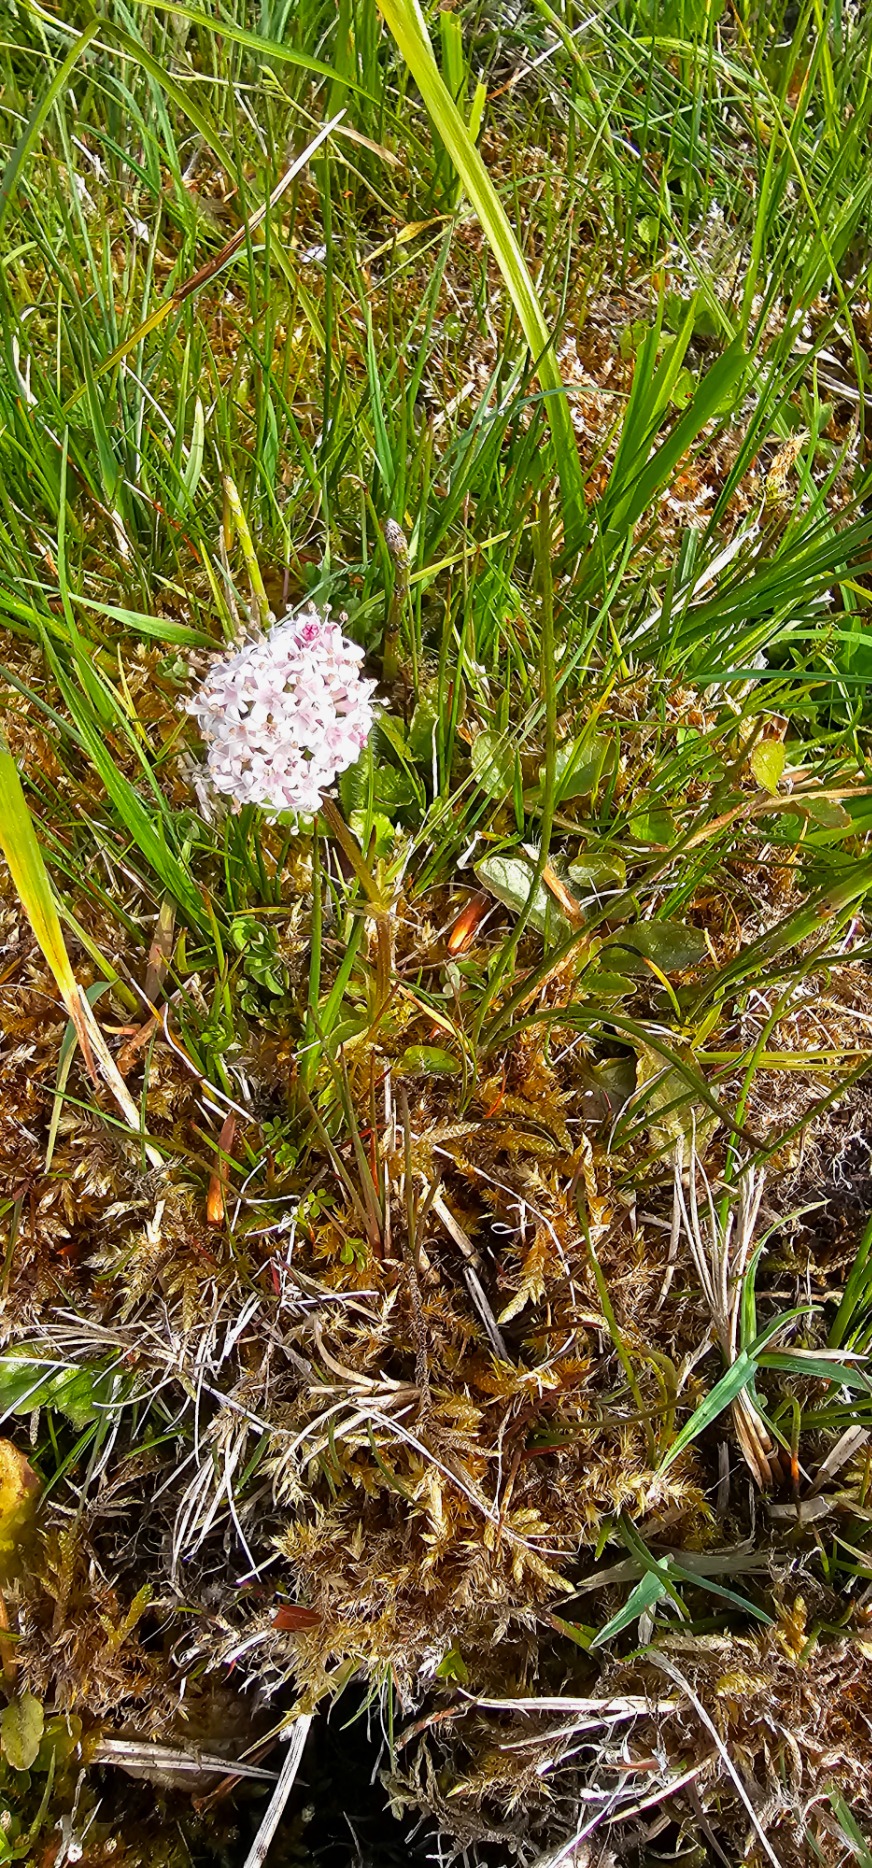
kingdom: Plantae
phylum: Tracheophyta
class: Magnoliopsida
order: Dipsacales
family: Caprifoliaceae
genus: Valeriana
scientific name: Valeriana dioica
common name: Tvebo baldrian
